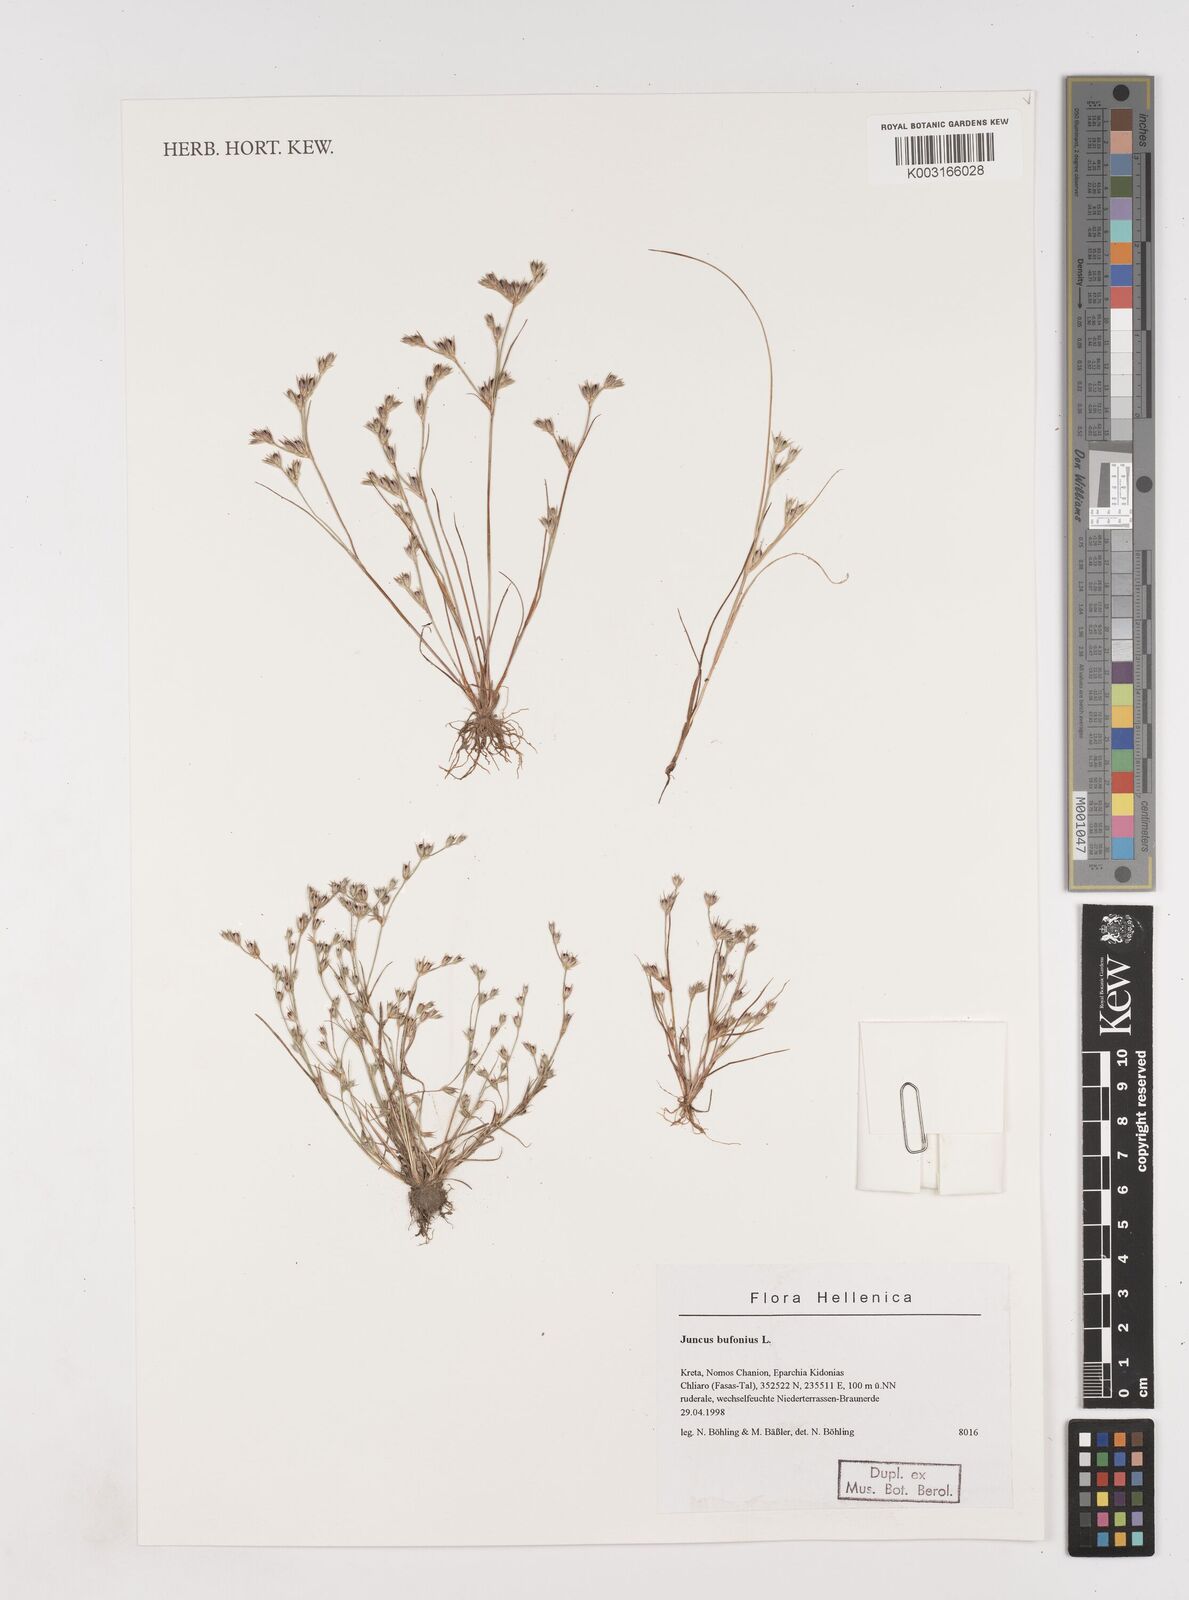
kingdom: Plantae
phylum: Tracheophyta
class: Liliopsida
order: Poales
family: Juncaceae
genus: Juncus
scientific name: Juncus bufonius
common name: Toad rush
